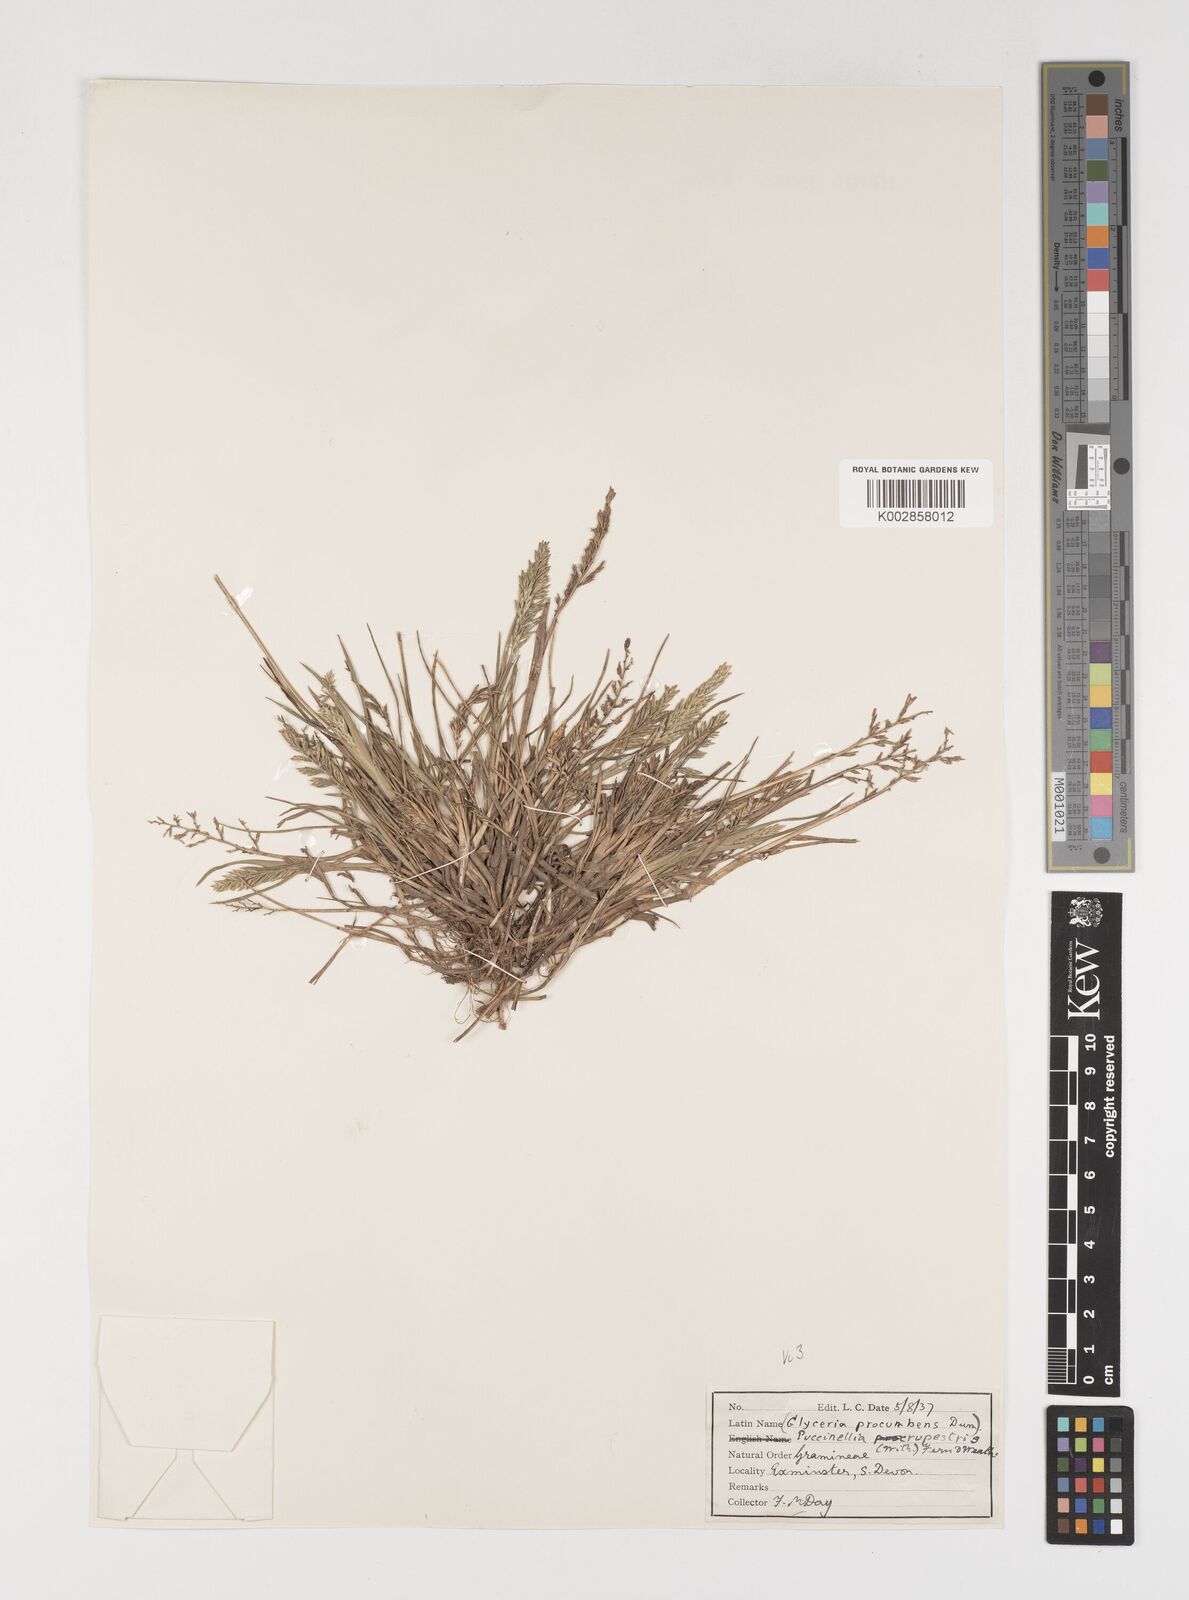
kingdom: Plantae
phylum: Tracheophyta
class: Liliopsida
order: Poales
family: Poaceae
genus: Puccinellia
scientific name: Puccinellia rupestris
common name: Stiff saltmarsh-grass
